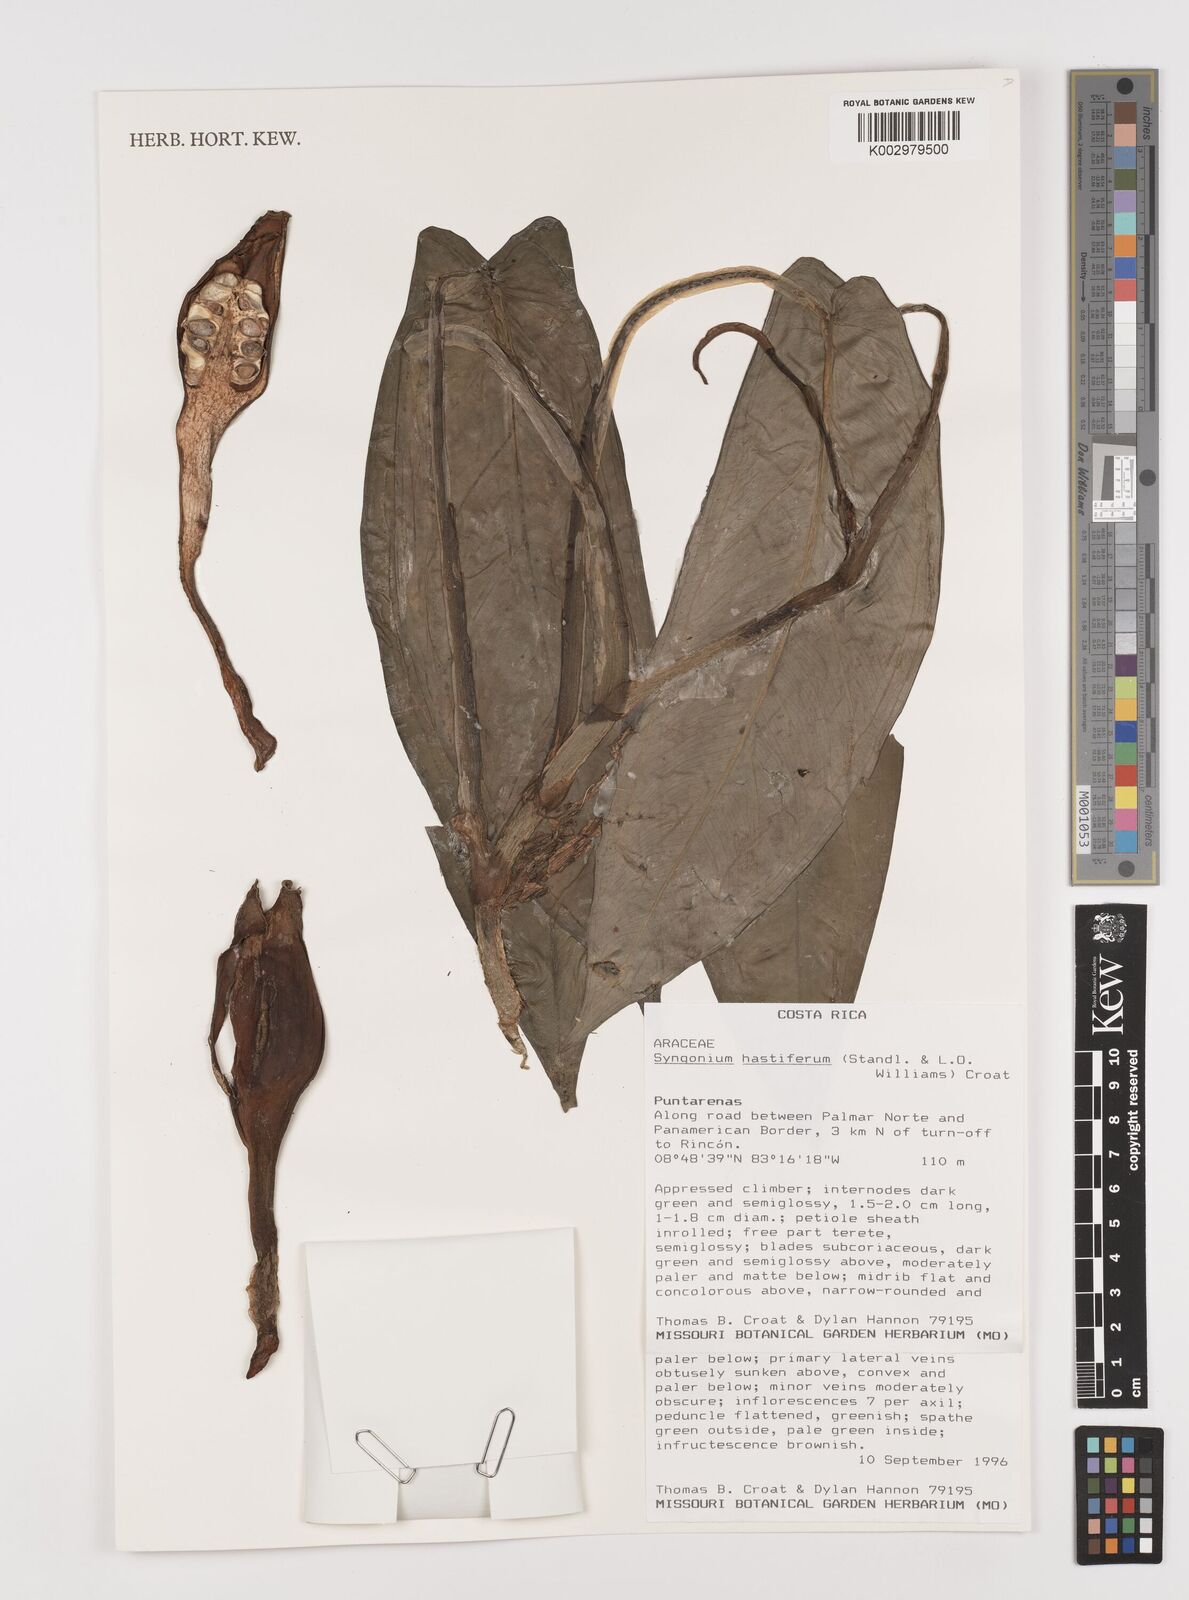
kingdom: Plantae
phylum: Tracheophyta
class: Liliopsida
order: Alismatales
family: Araceae
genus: Syngonium
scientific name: Syngonium hastiferum
